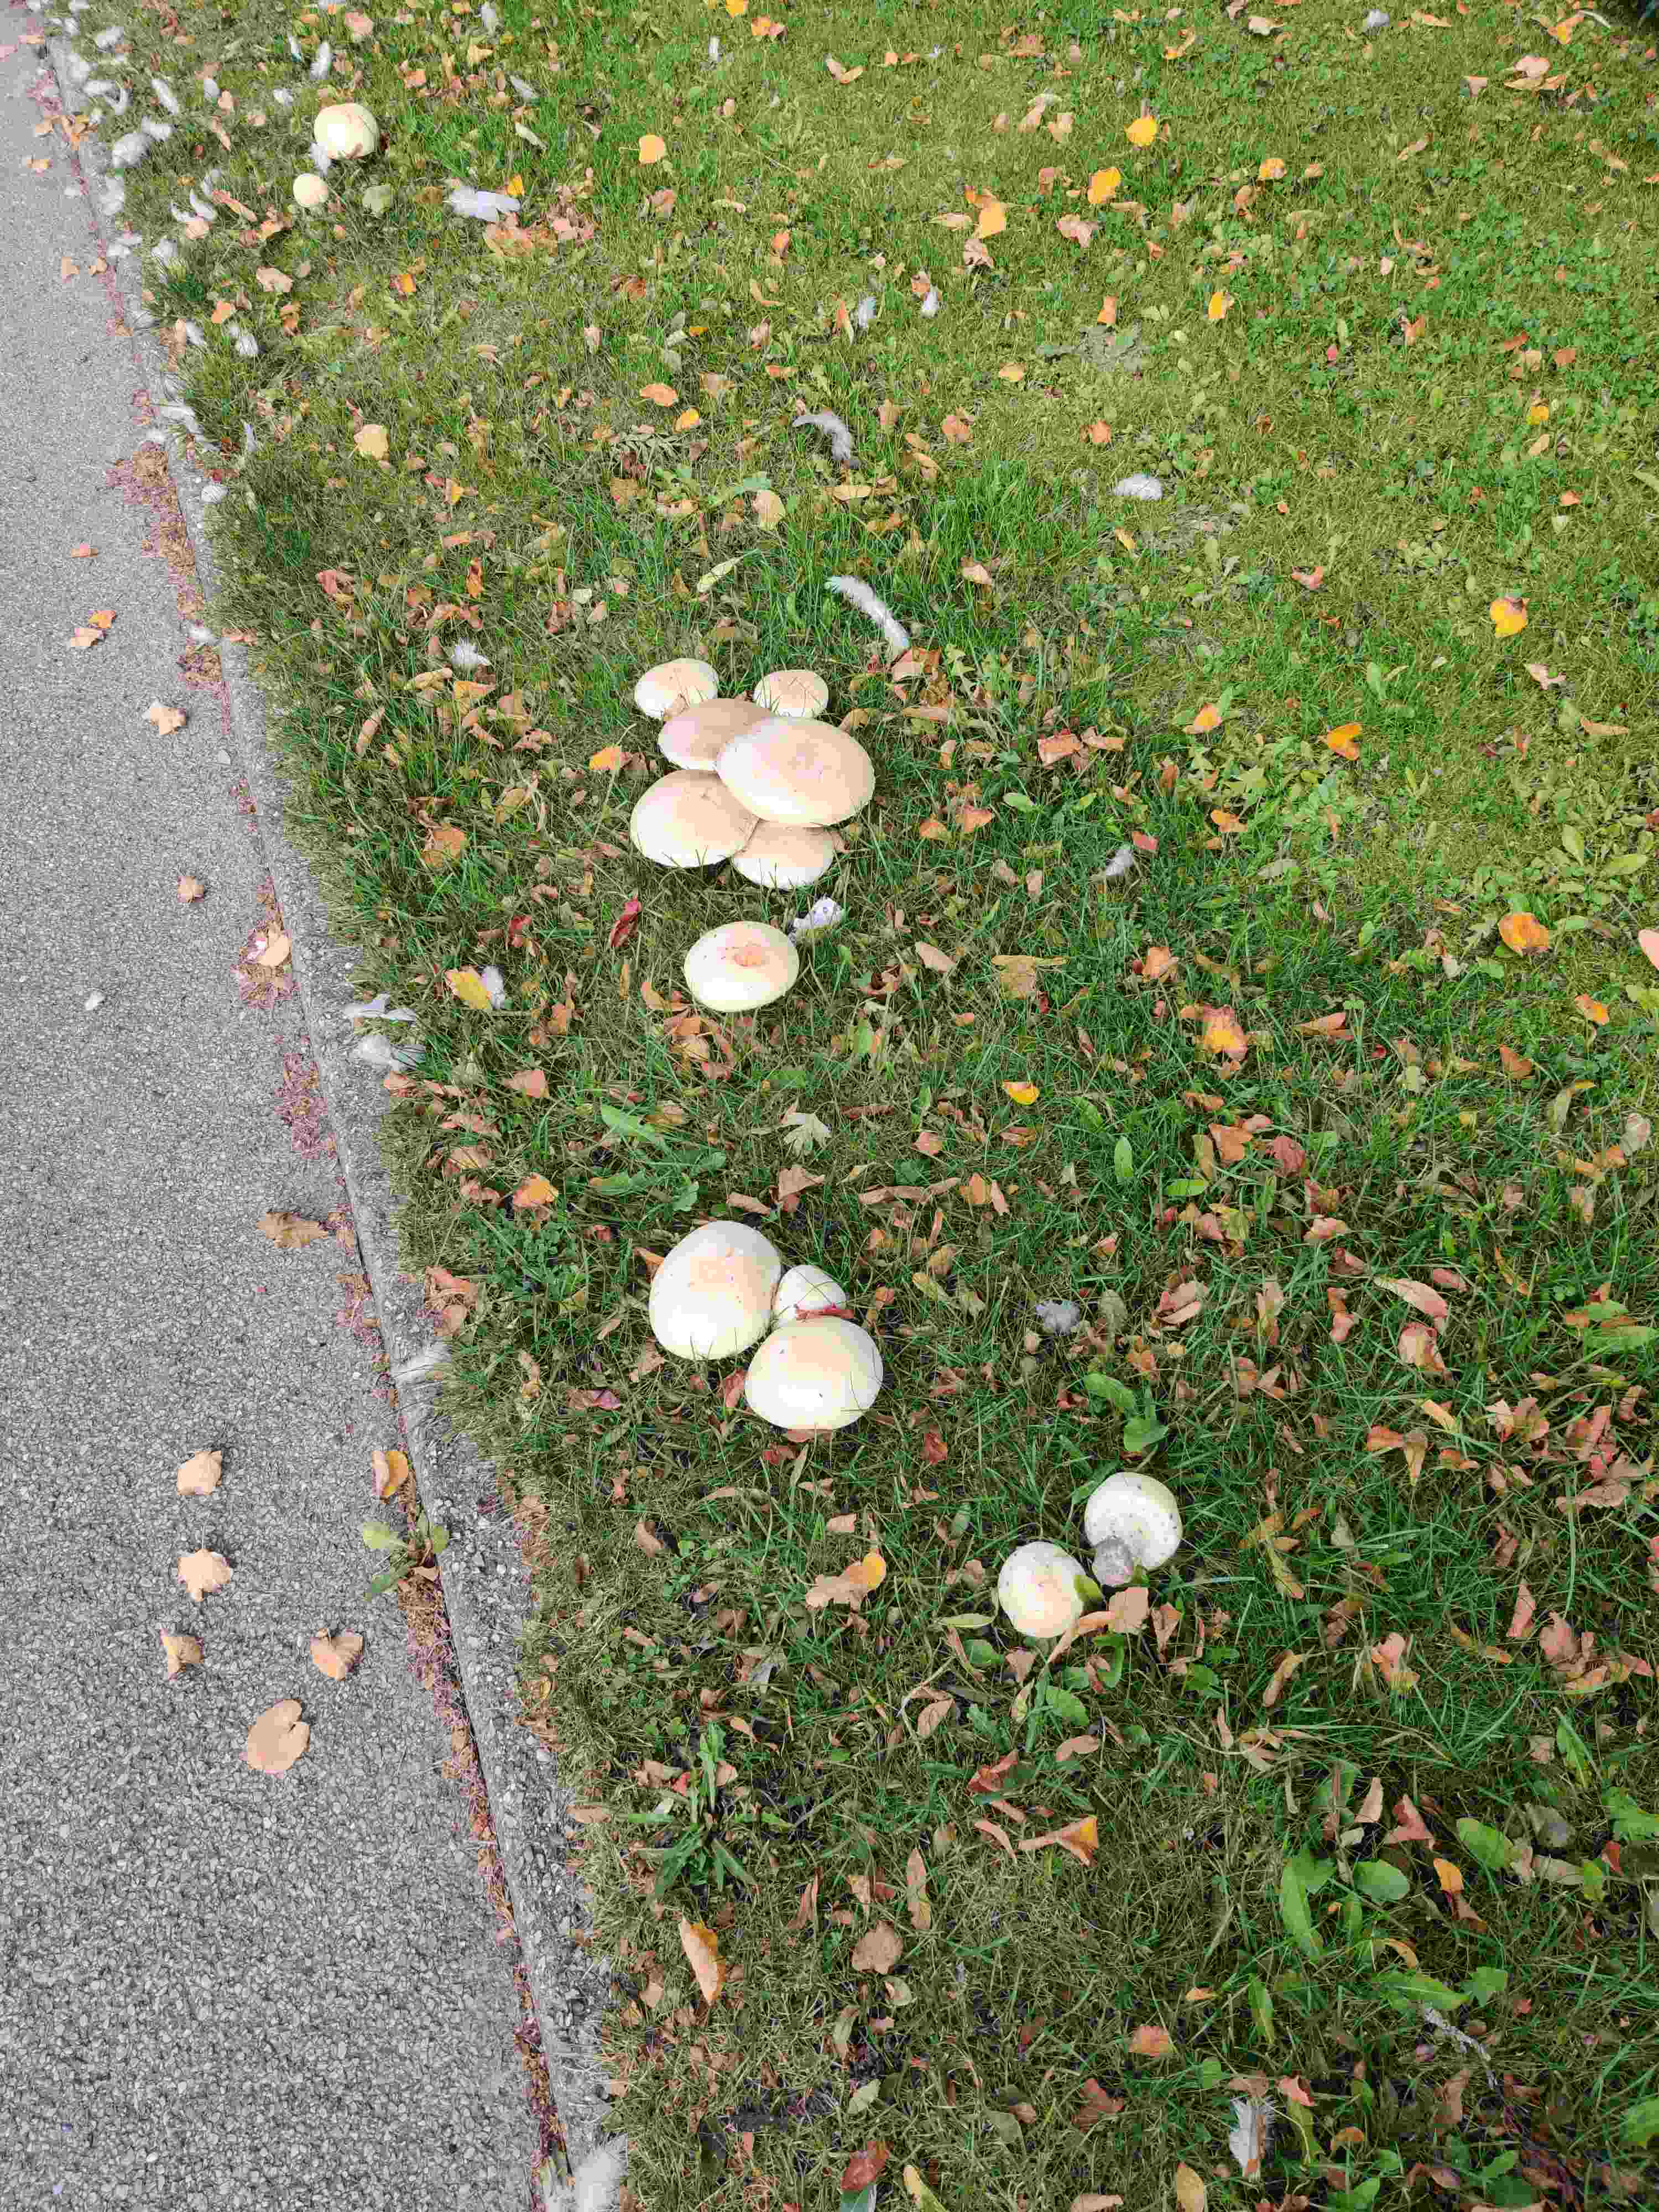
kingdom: Fungi
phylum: Basidiomycota
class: Agaricomycetes
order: Agaricales
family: Agaricaceae
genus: Agaricus
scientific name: Agaricus
